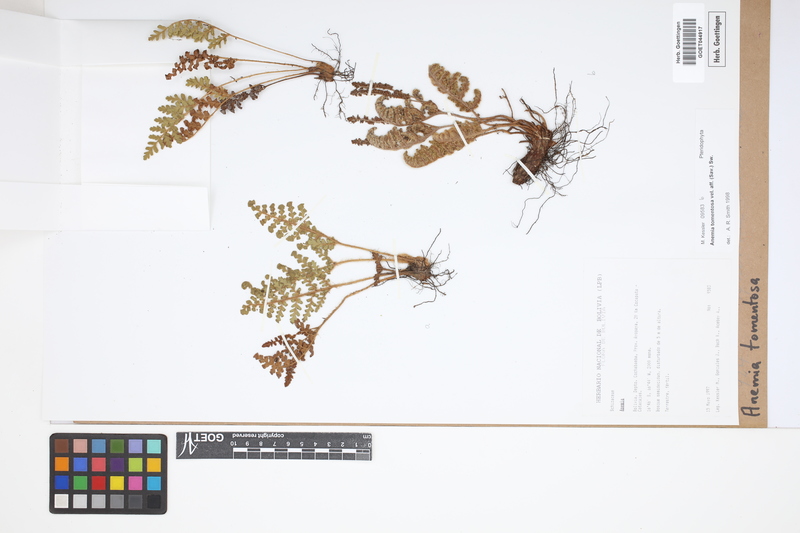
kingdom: Plantae
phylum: Tracheophyta
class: Polypodiopsida
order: Schizaeales
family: Anemiaceae
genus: Anemia
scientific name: Anemia tomentosa
